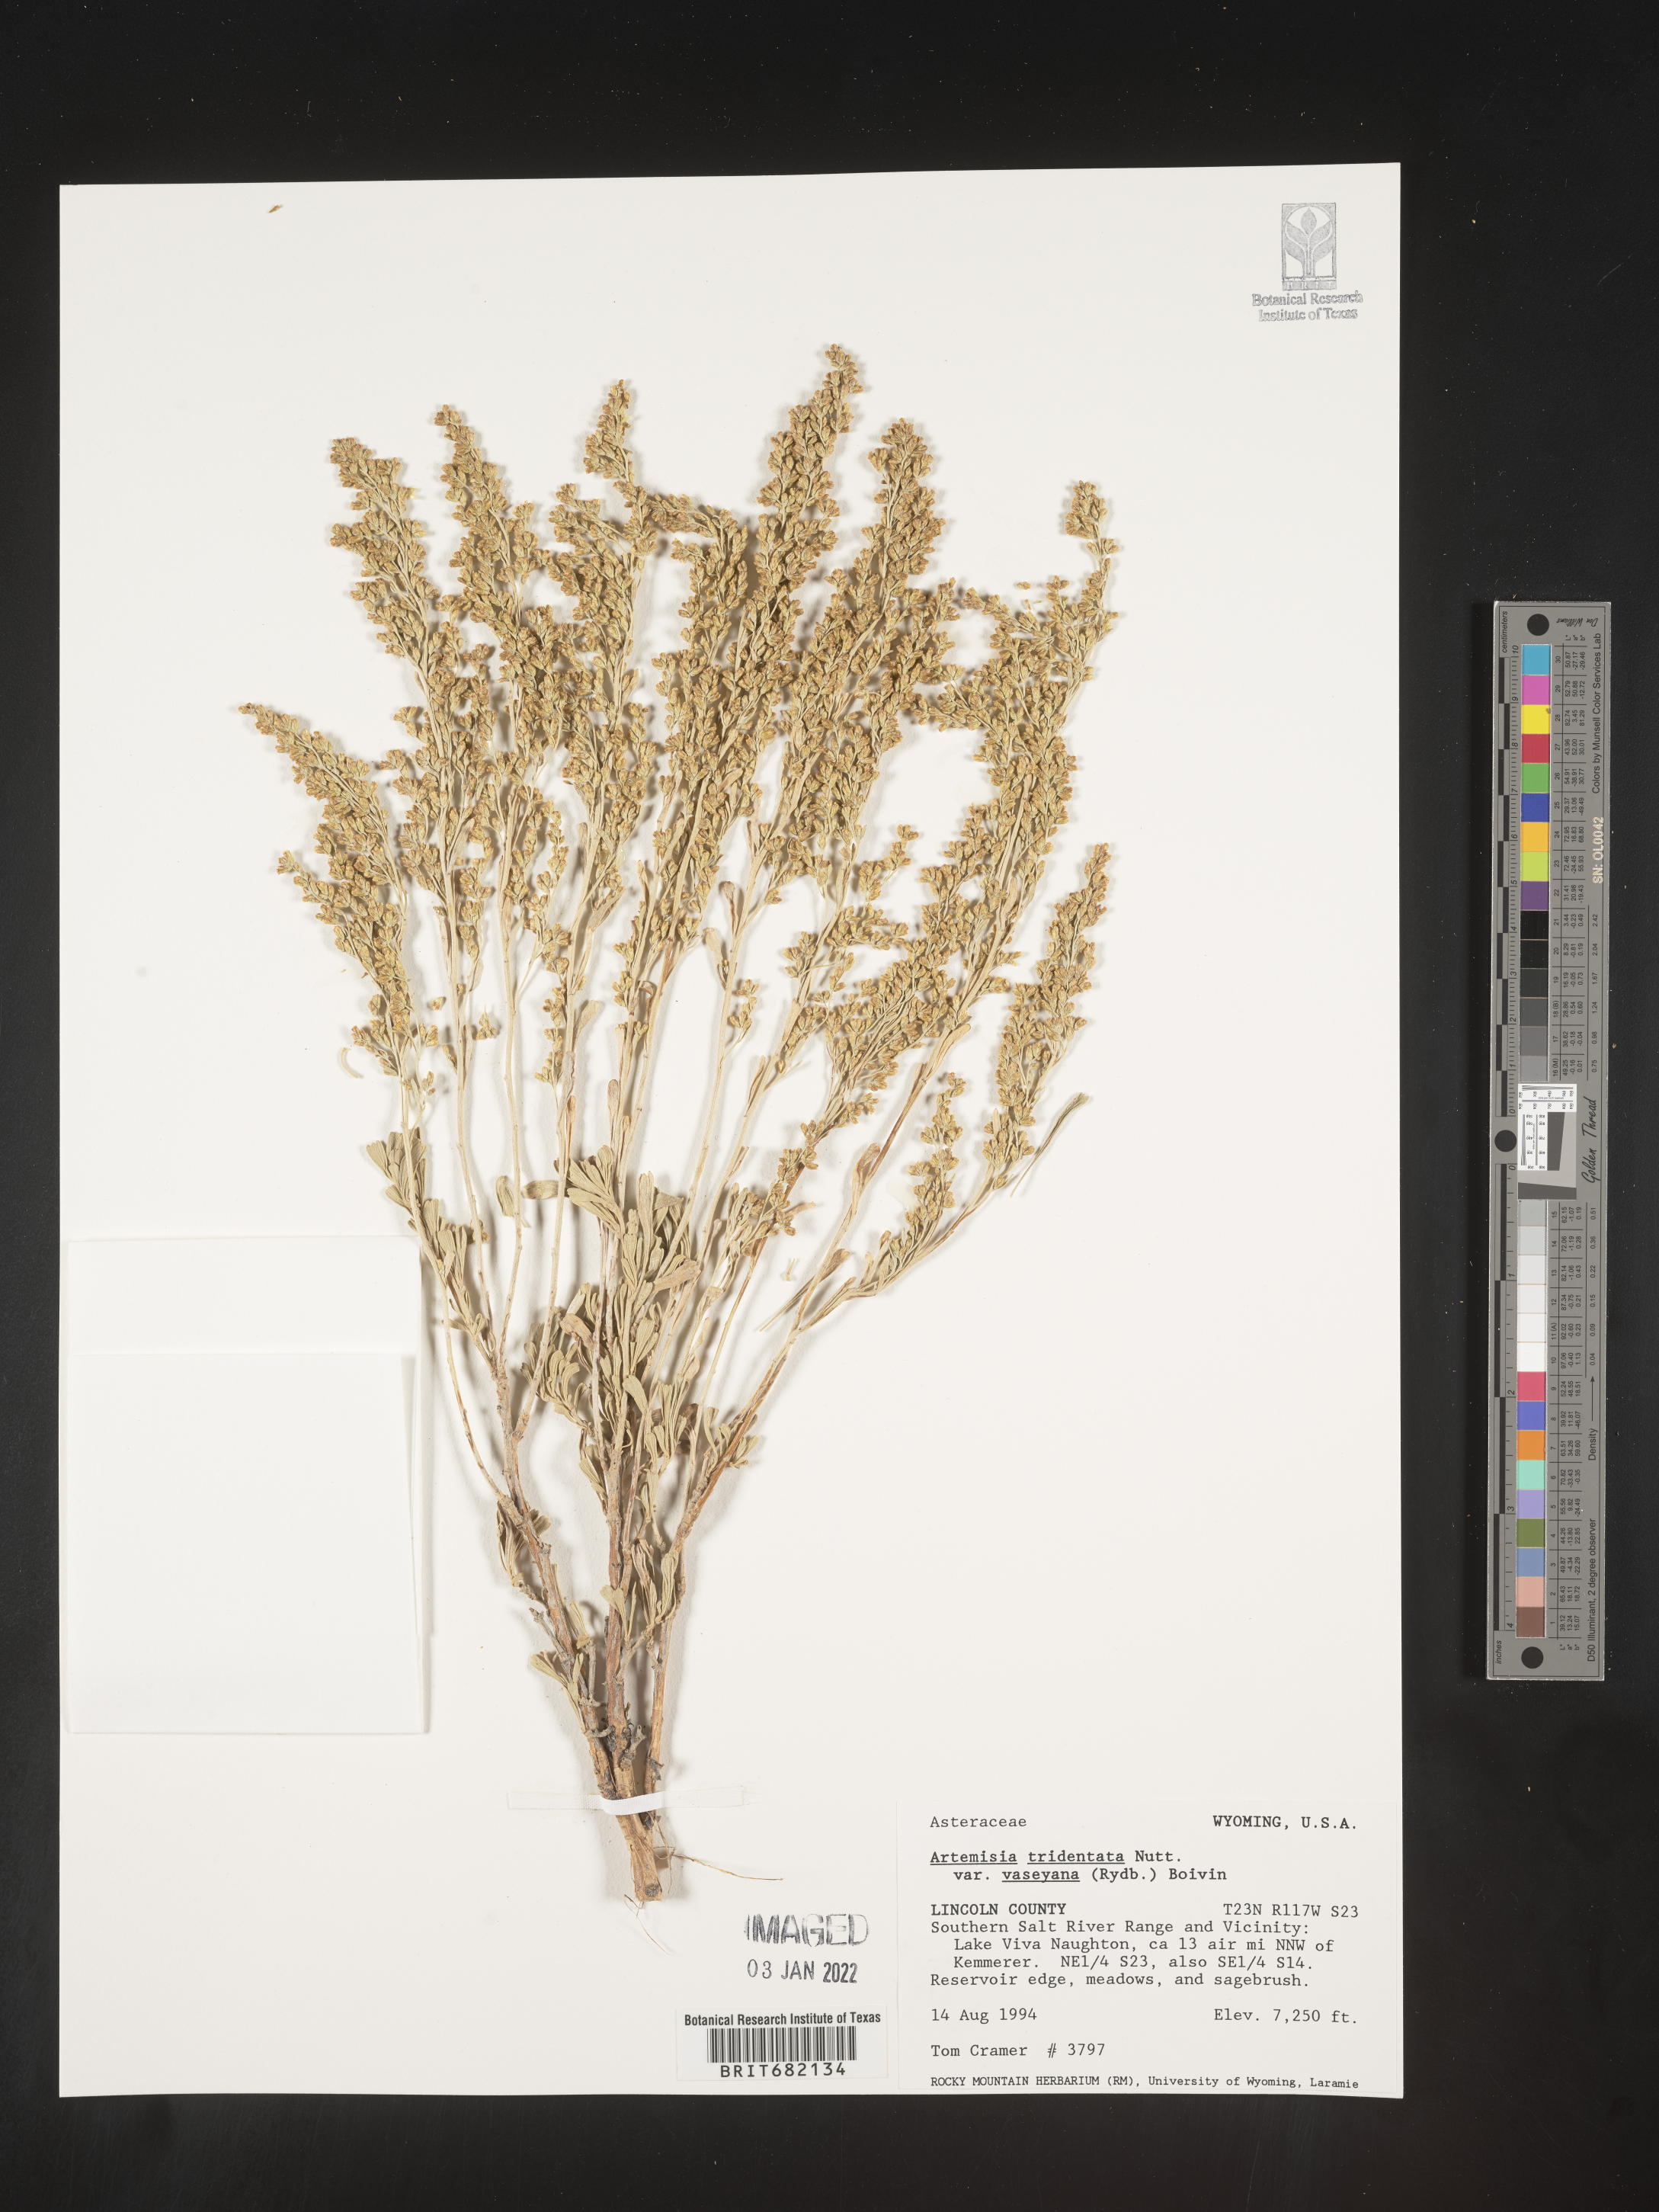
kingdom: Plantae
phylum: Tracheophyta
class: Magnoliopsida
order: Asterales
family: Asteraceae
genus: Artemisia
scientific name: Artemisia tridentata
